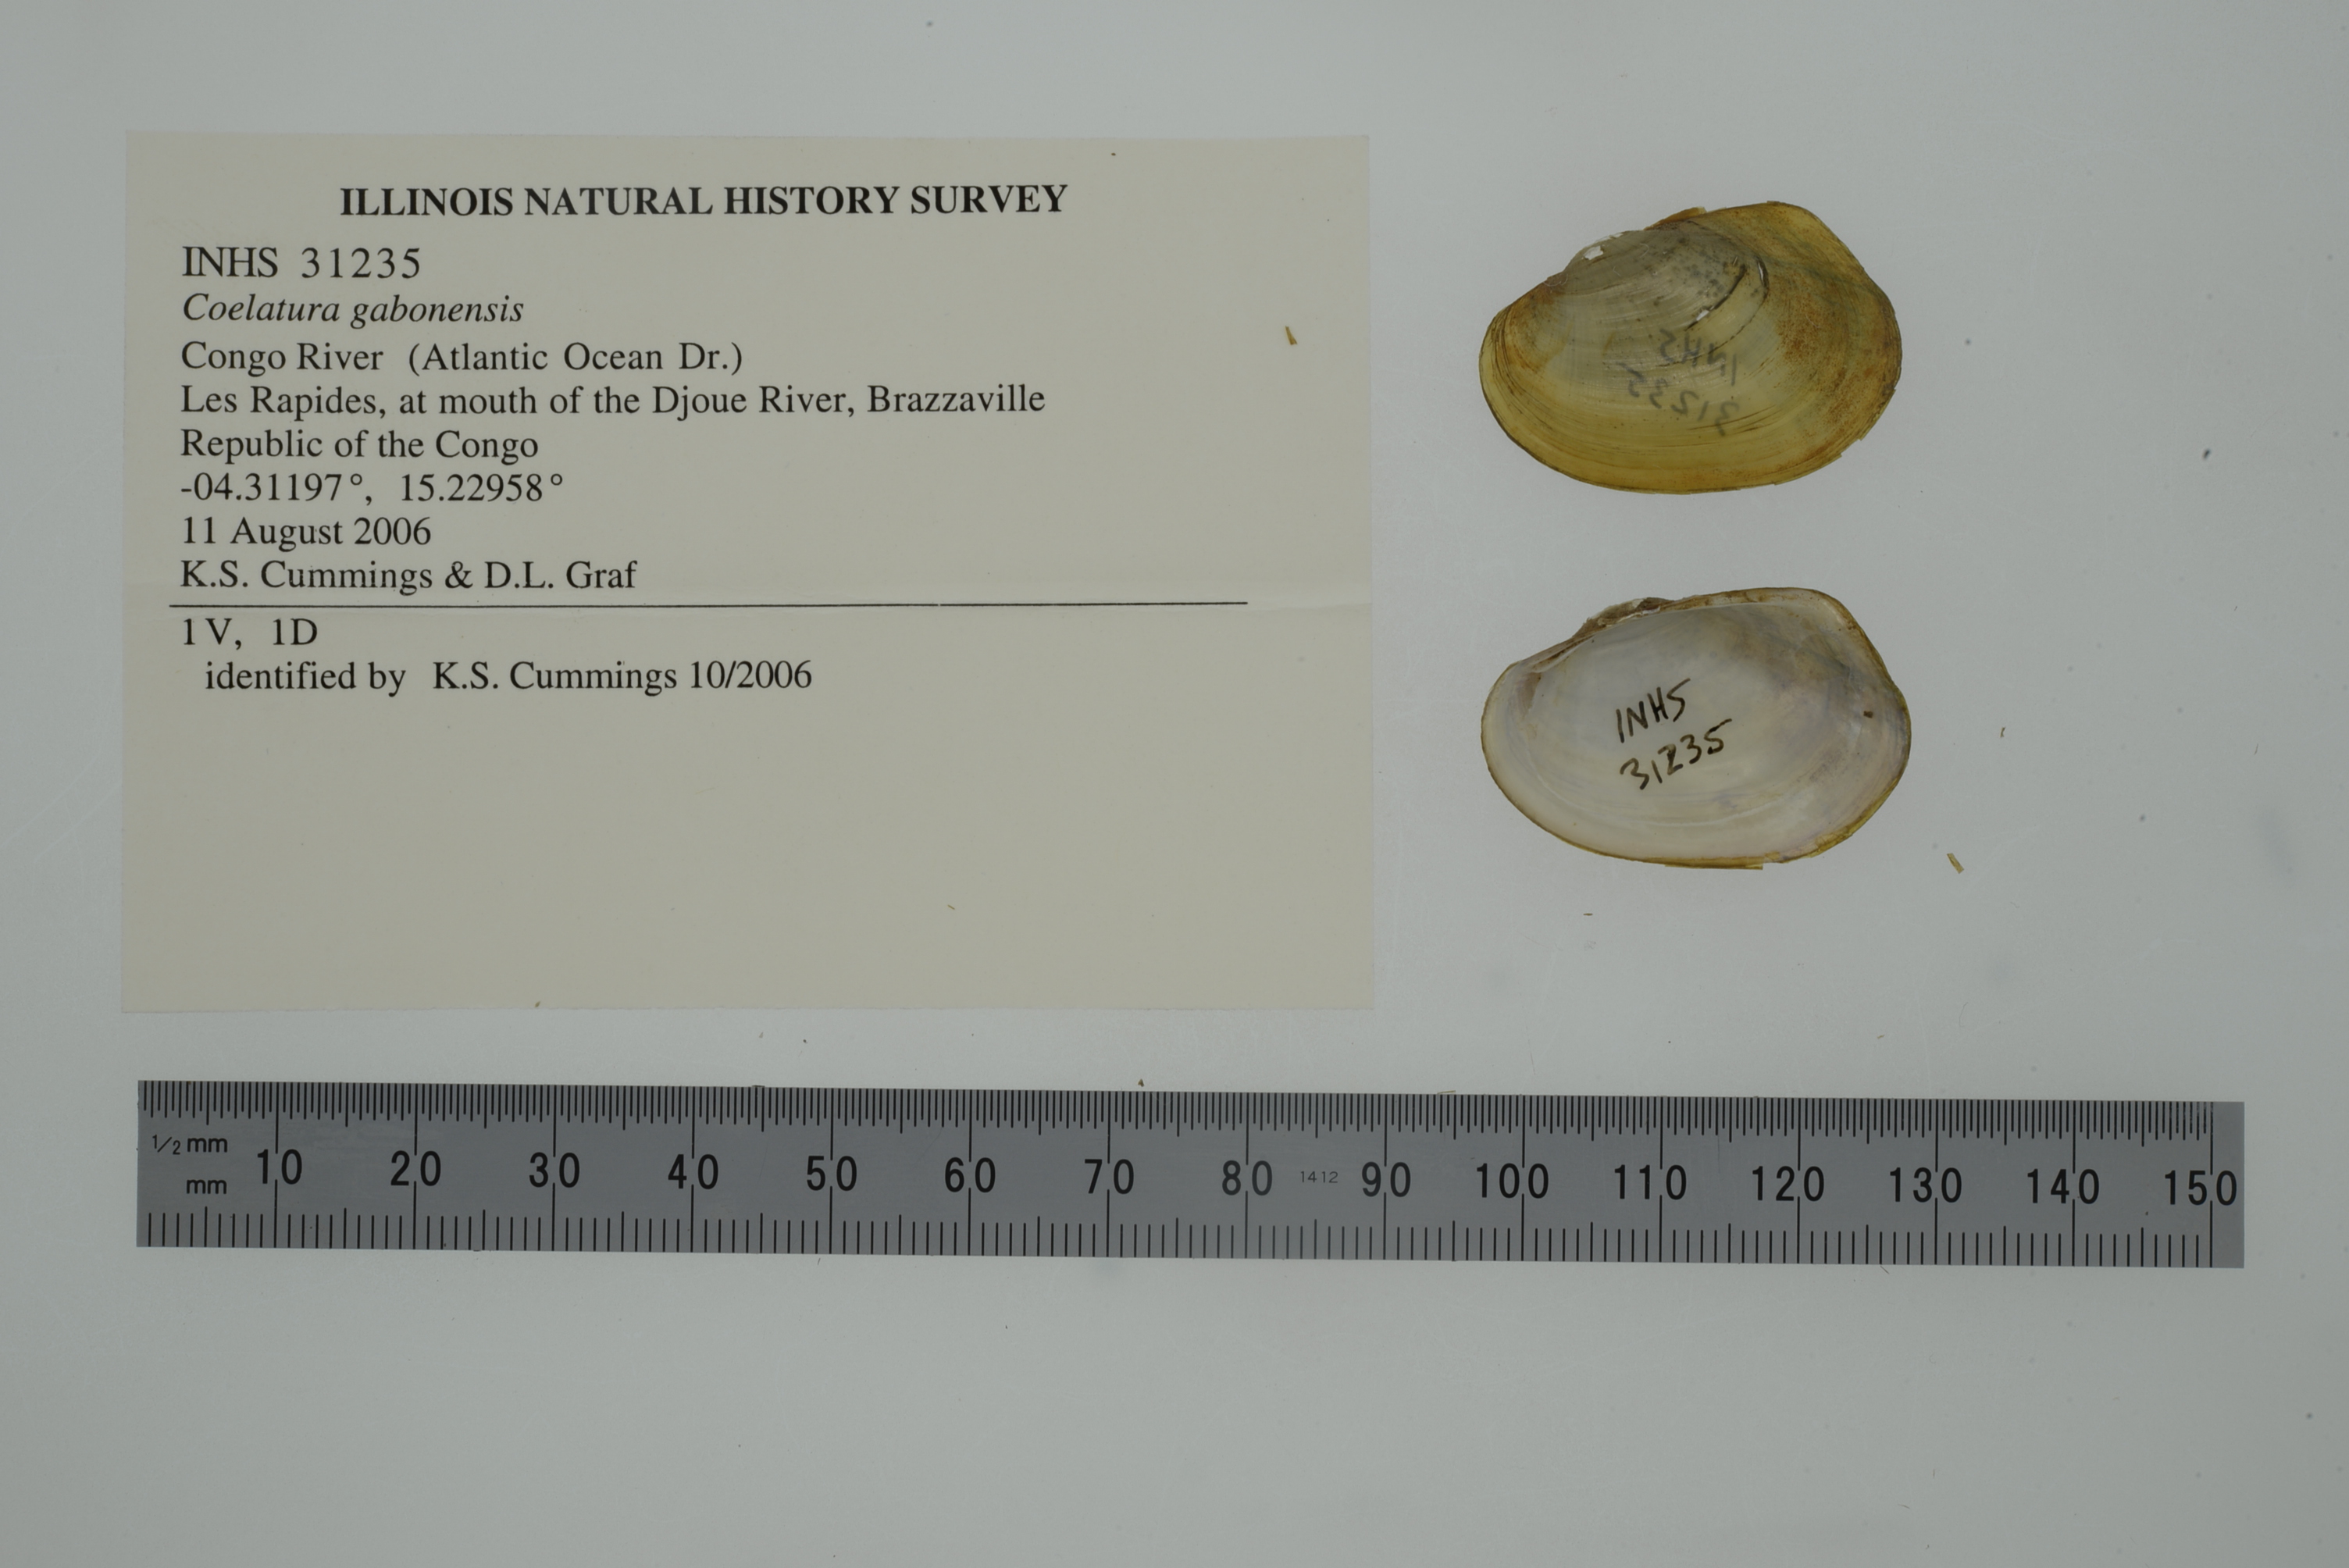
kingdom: Animalia
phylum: Mollusca
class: Bivalvia
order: Unionida
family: Unionidae
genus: Coelatura
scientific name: Coelatura luapulaensis
